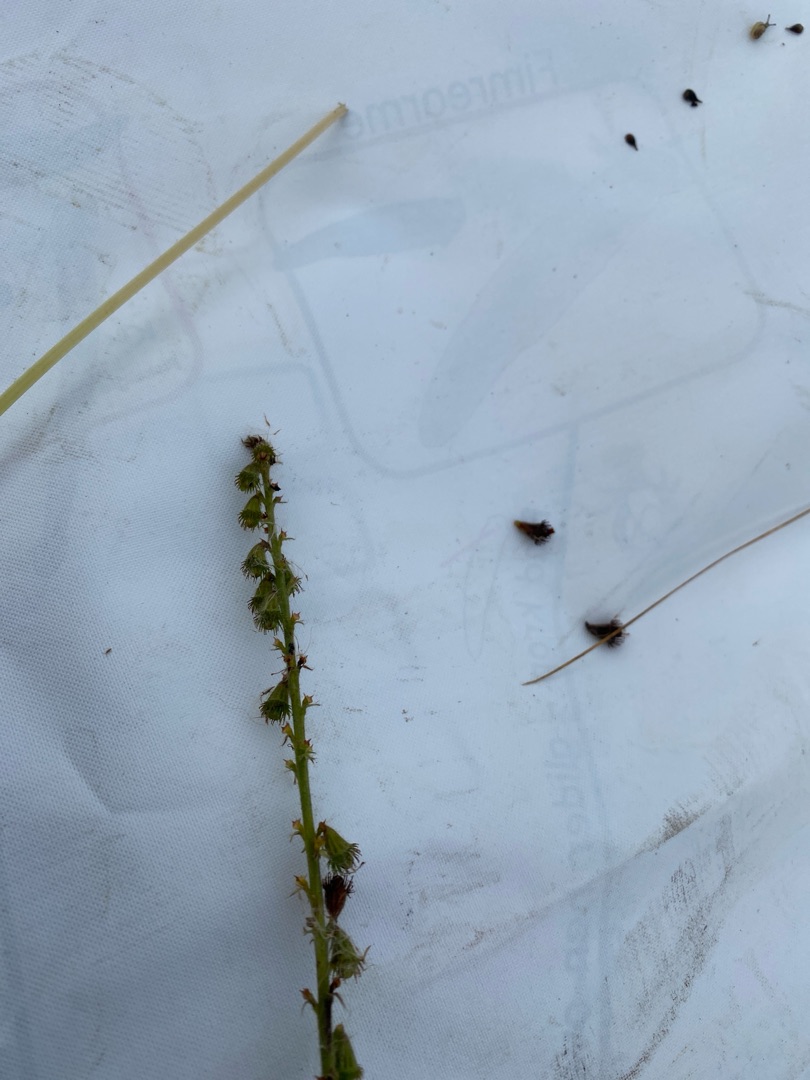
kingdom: Plantae
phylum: Tracheophyta
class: Magnoliopsida
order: Rosales
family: Rosaceae
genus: Agrimonia
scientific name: Agrimonia eupatoria
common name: Almindelig agermåne
